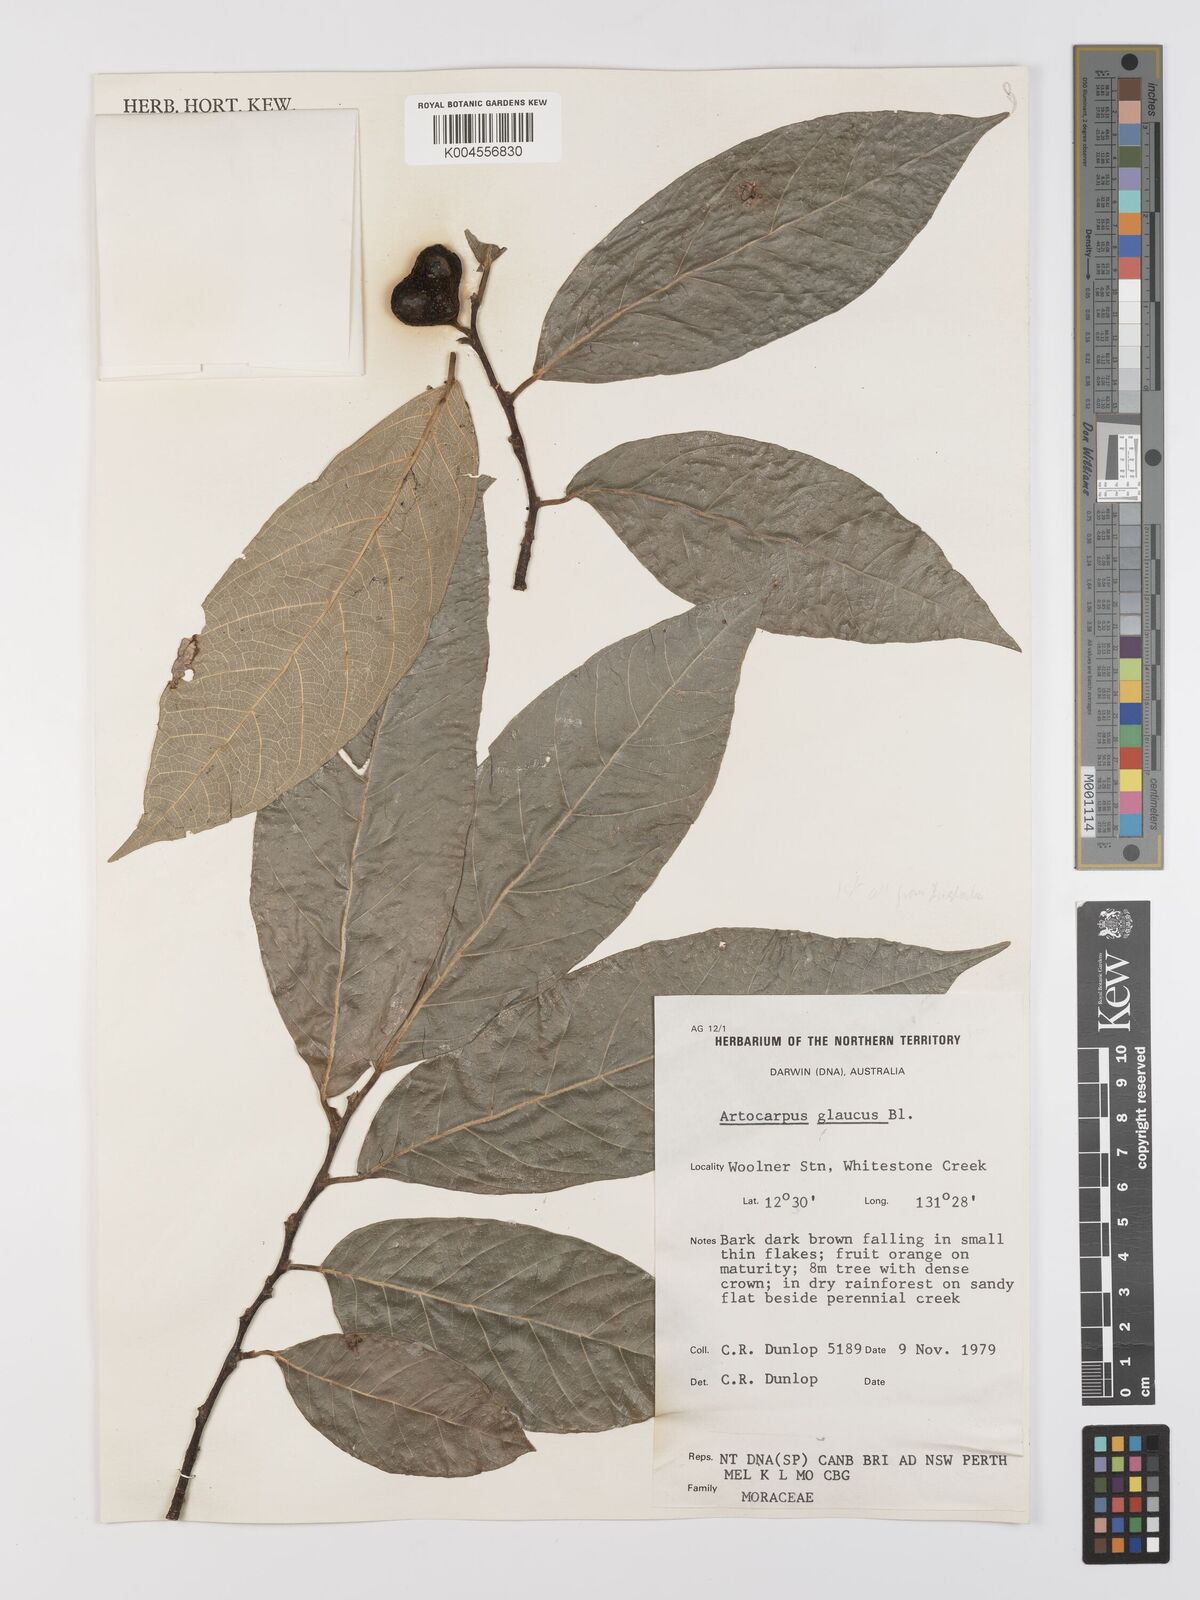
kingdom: Plantae
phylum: Tracheophyta
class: Magnoliopsida
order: Rosales
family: Moraceae
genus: Artocarpus
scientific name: Artocarpus glaucus
